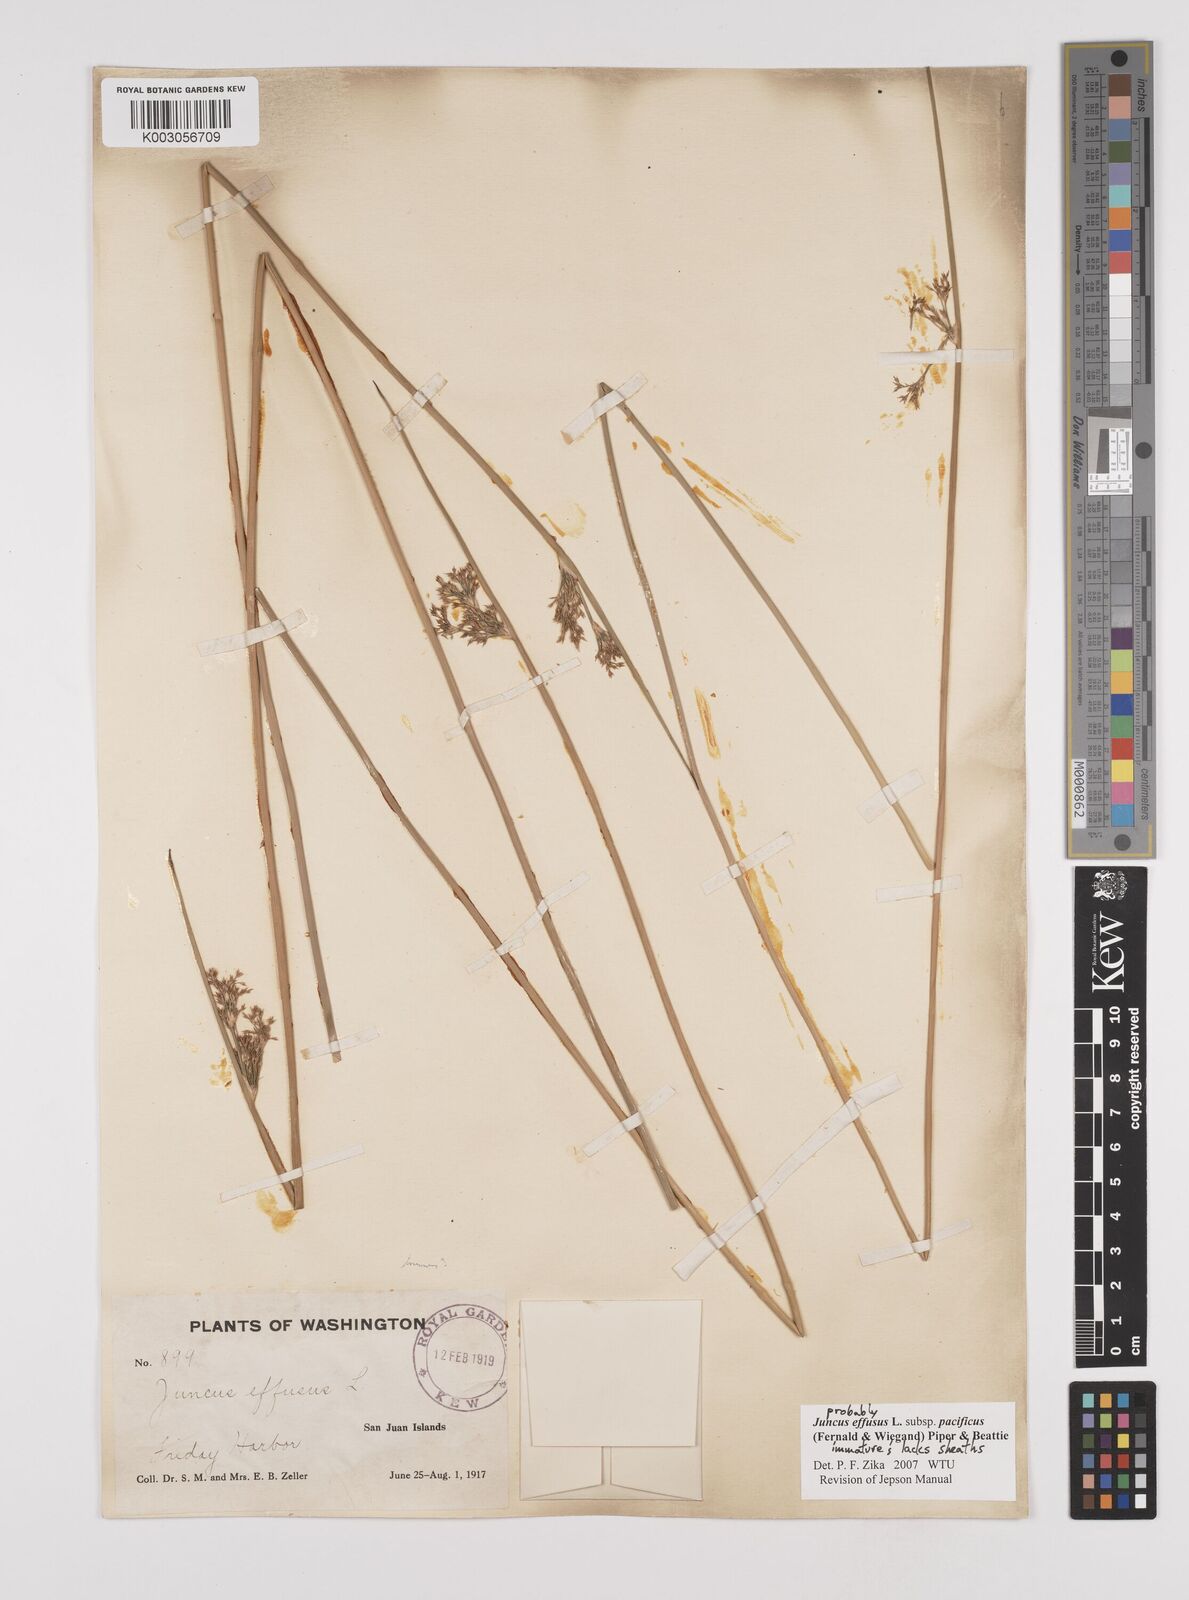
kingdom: Plantae
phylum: Tracheophyta
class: Liliopsida
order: Poales
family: Juncaceae
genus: Juncus
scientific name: Juncus effusus
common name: Soft rush
